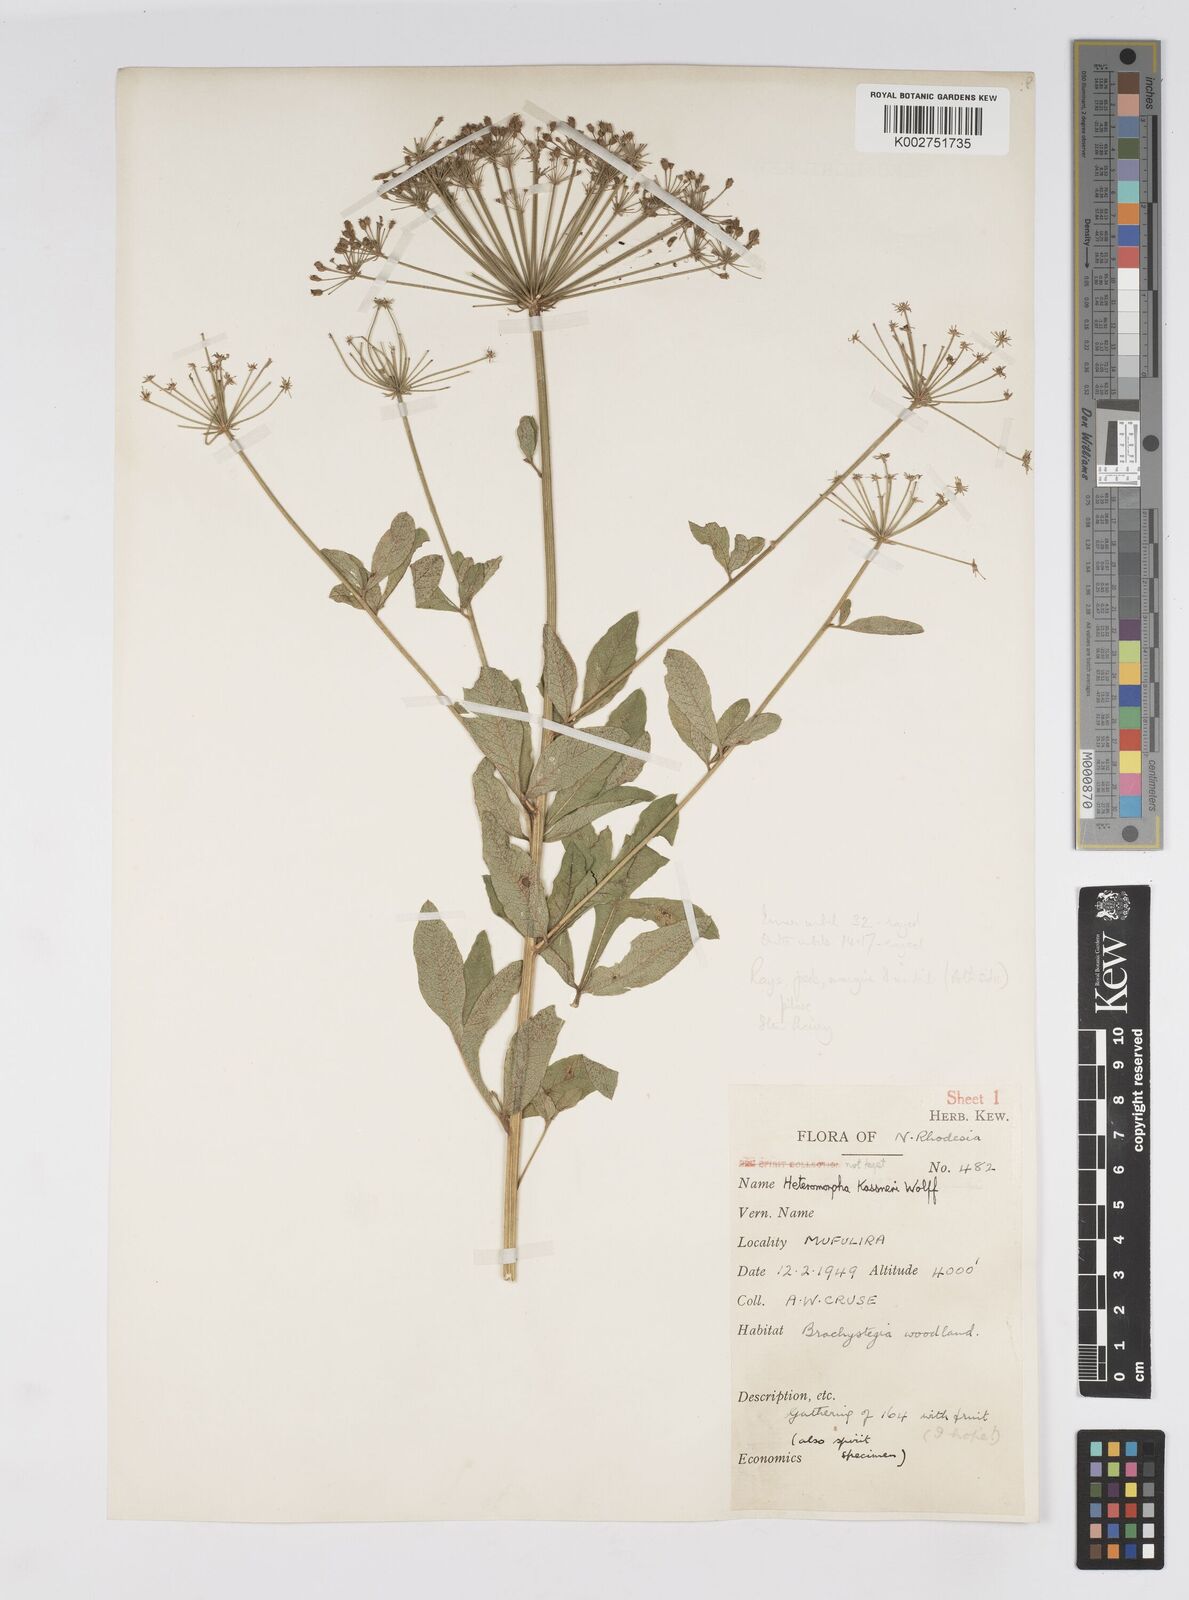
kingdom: Plantae
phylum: Tracheophyta
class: Magnoliopsida
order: Apiales
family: Apiaceae
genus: Heteromorpha
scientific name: Heteromorpha involucrata
